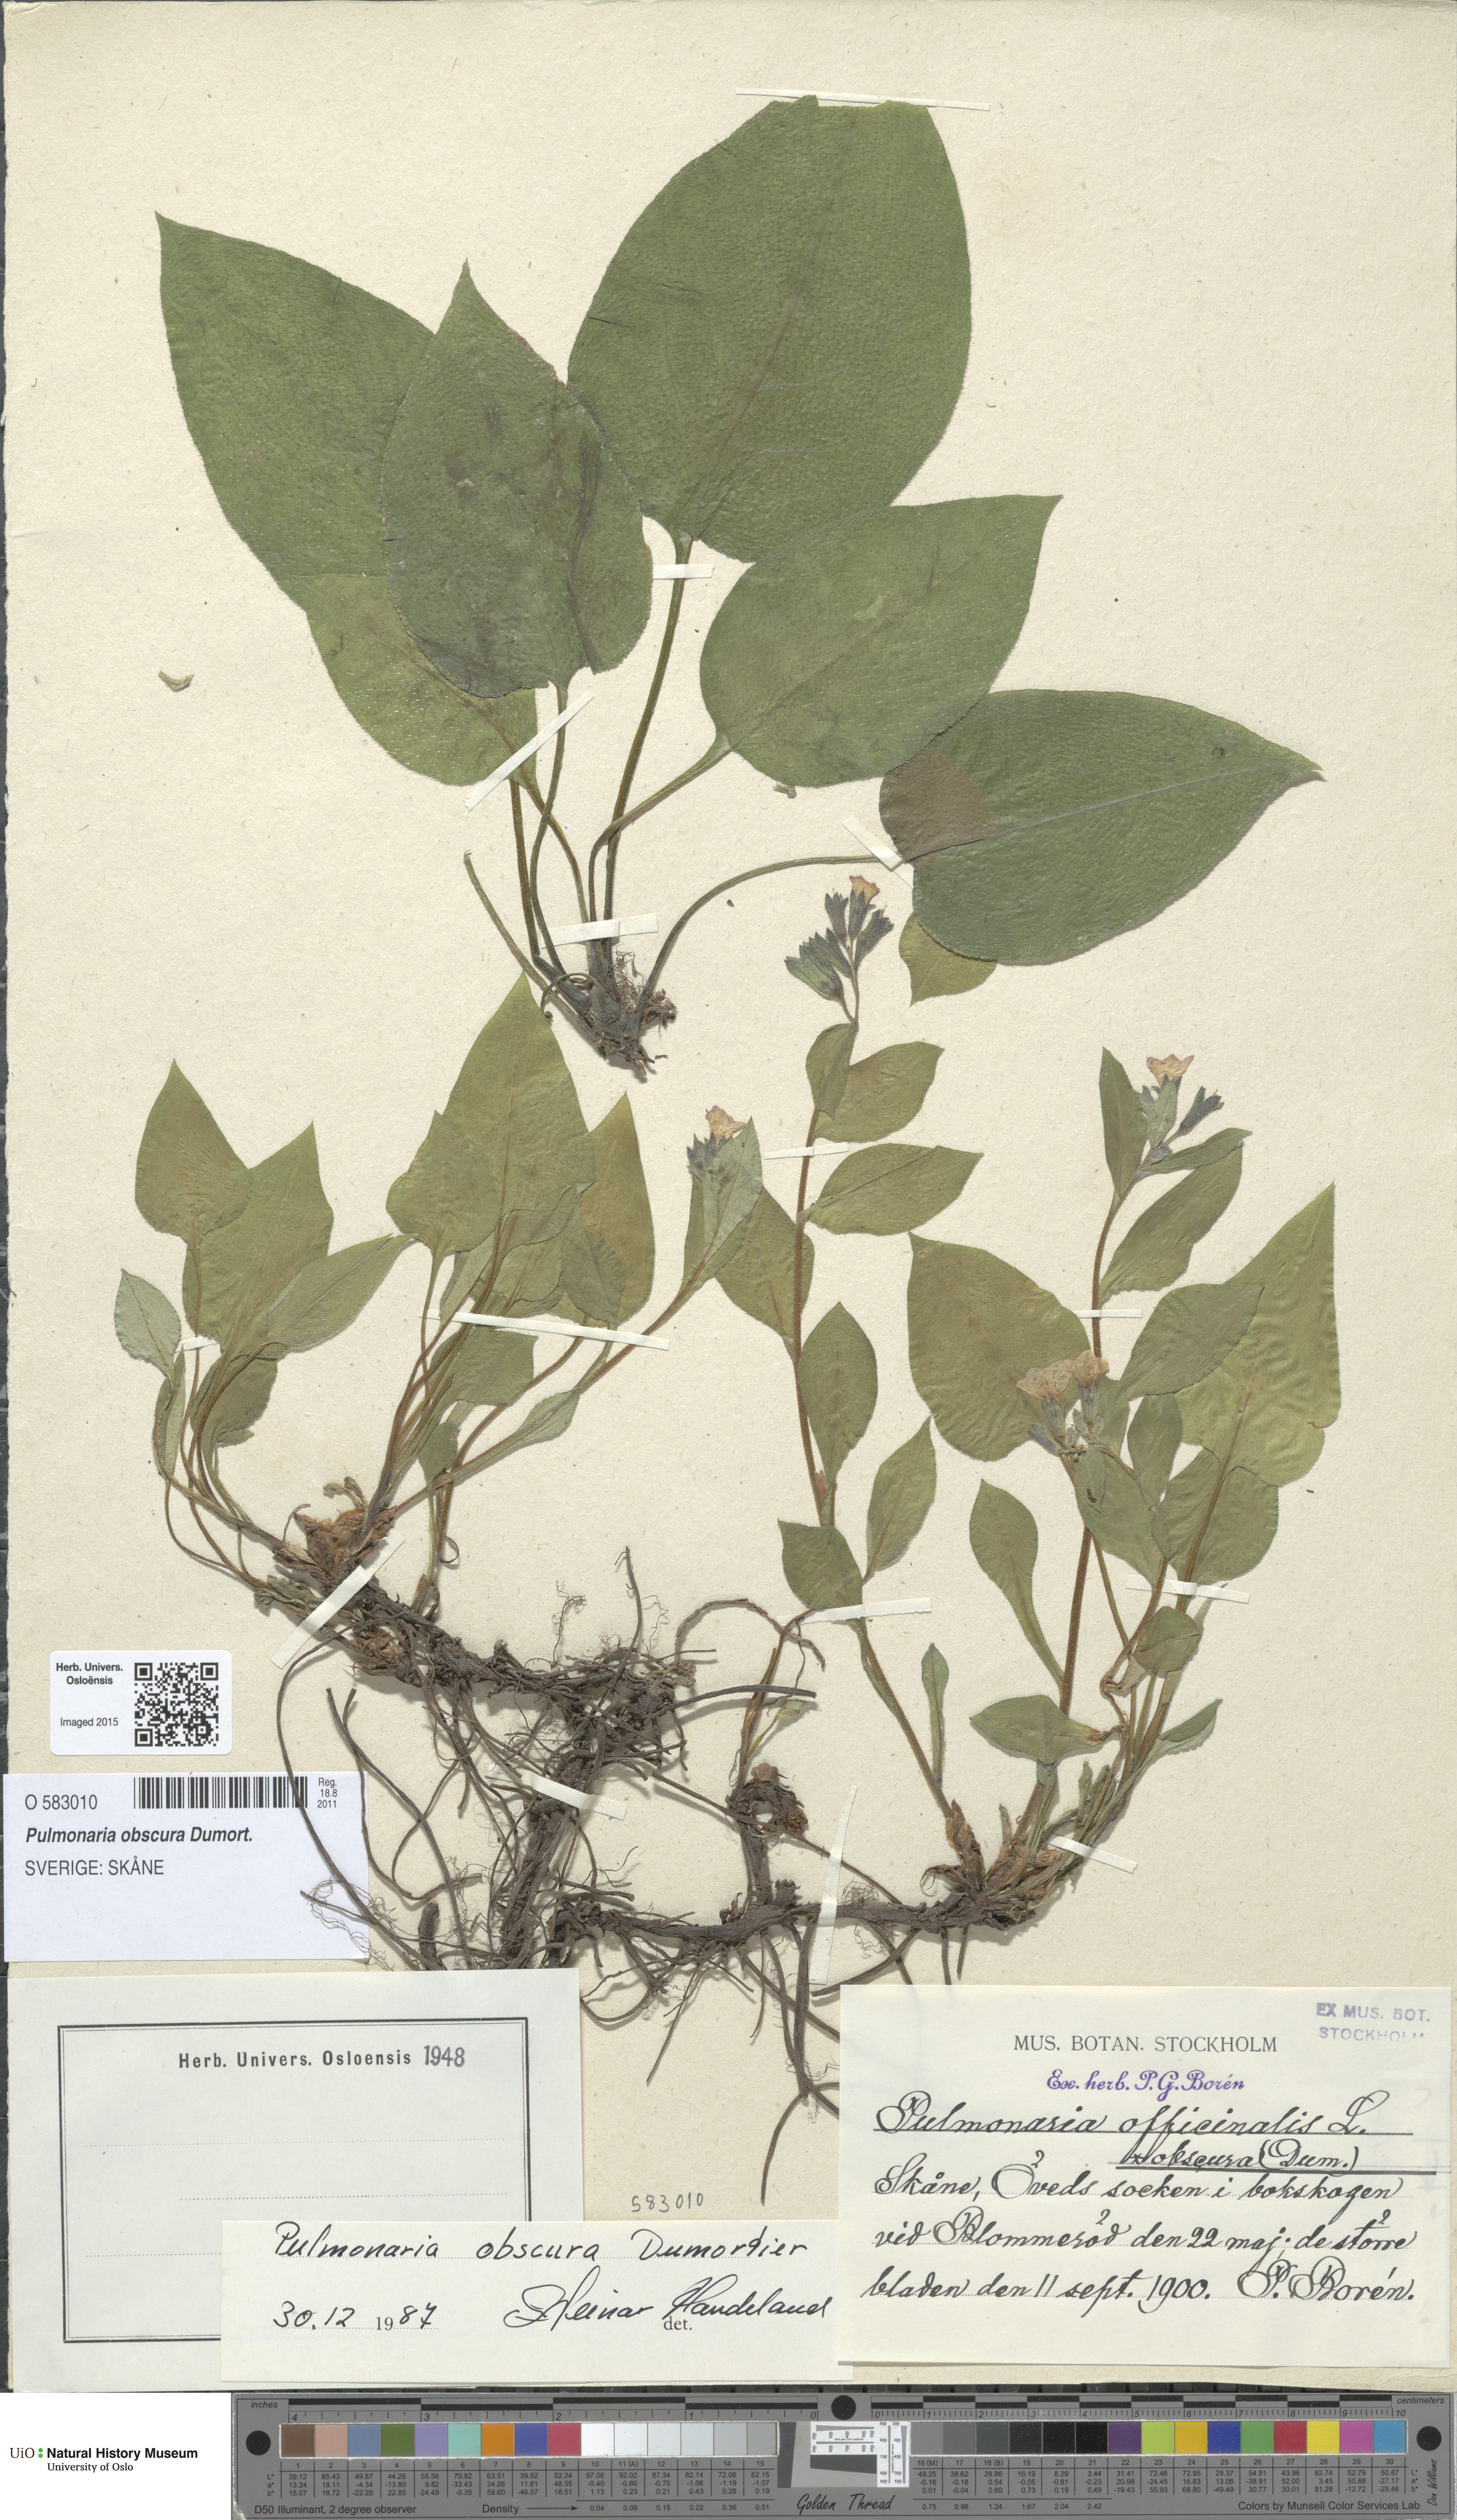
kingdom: Plantae
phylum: Tracheophyta
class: Magnoliopsida
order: Boraginales
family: Boraginaceae
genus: Pulmonaria
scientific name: Pulmonaria obscura
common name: Suffolk lungwort
